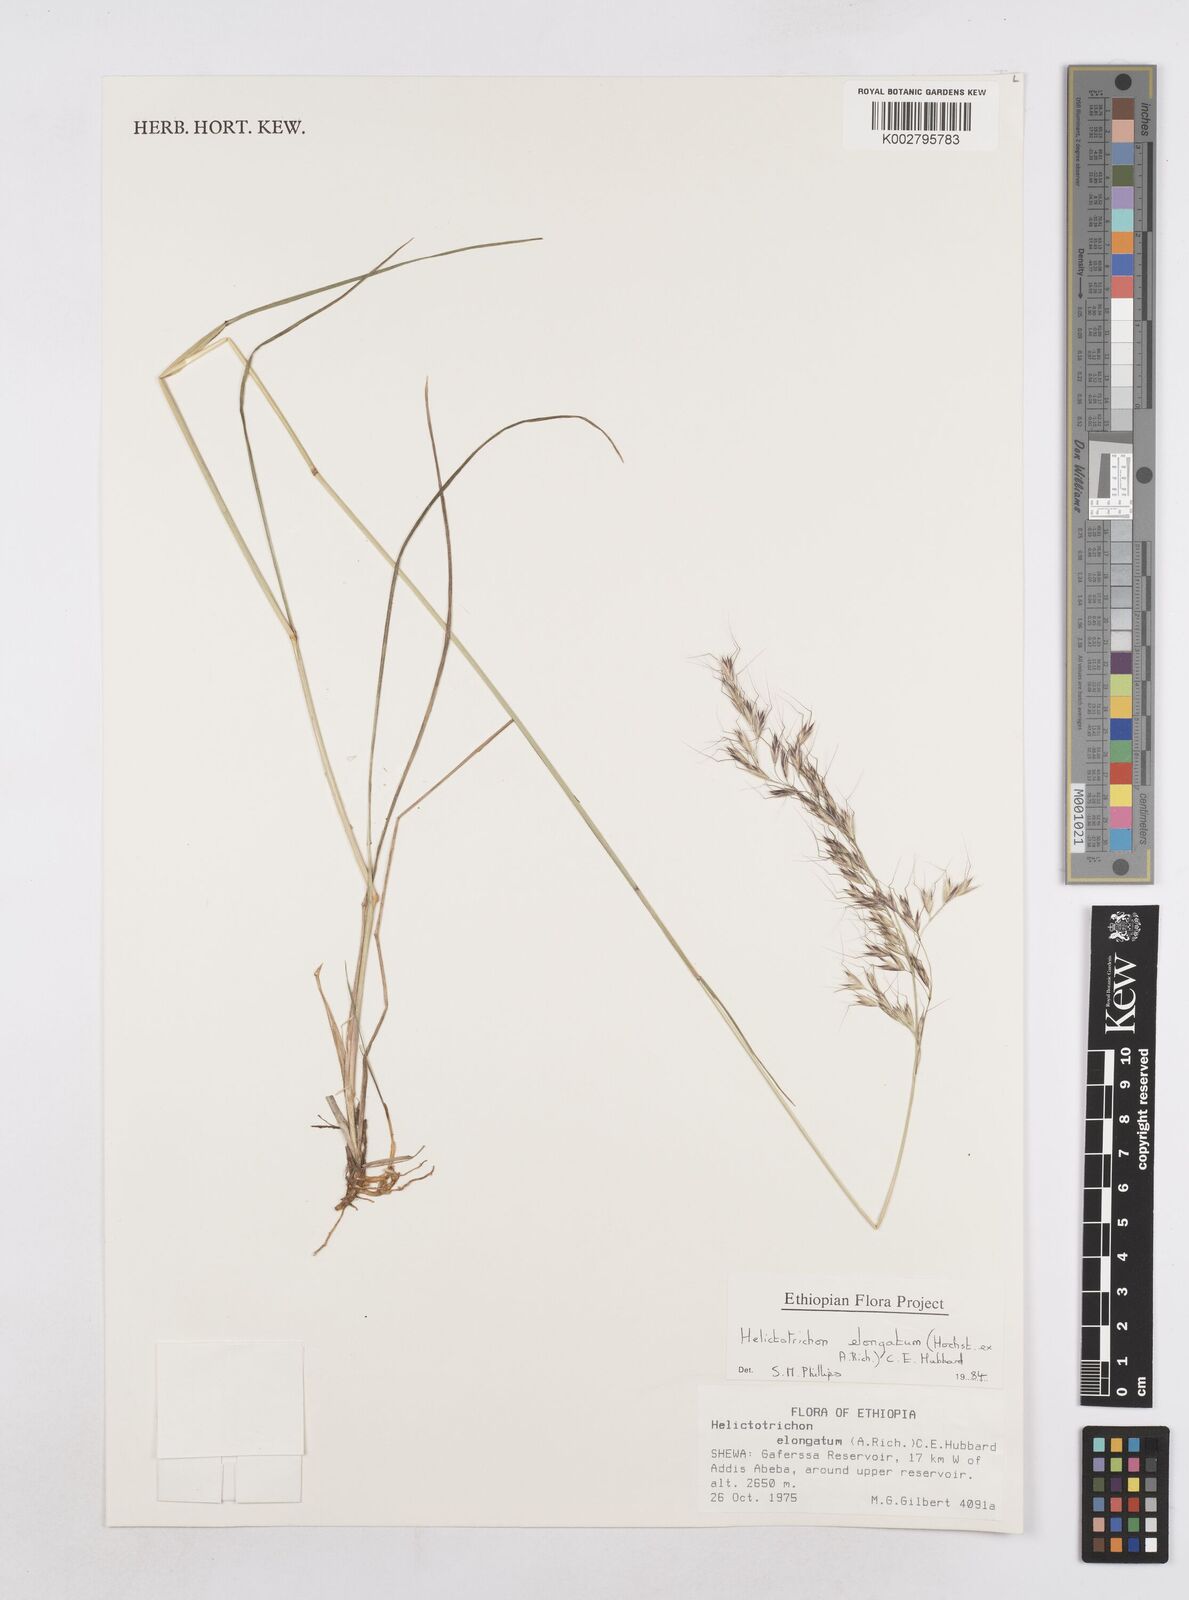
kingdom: Plantae
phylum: Tracheophyta
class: Liliopsida
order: Poales
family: Poaceae
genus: Trisetopsis
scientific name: Trisetopsis elongata
